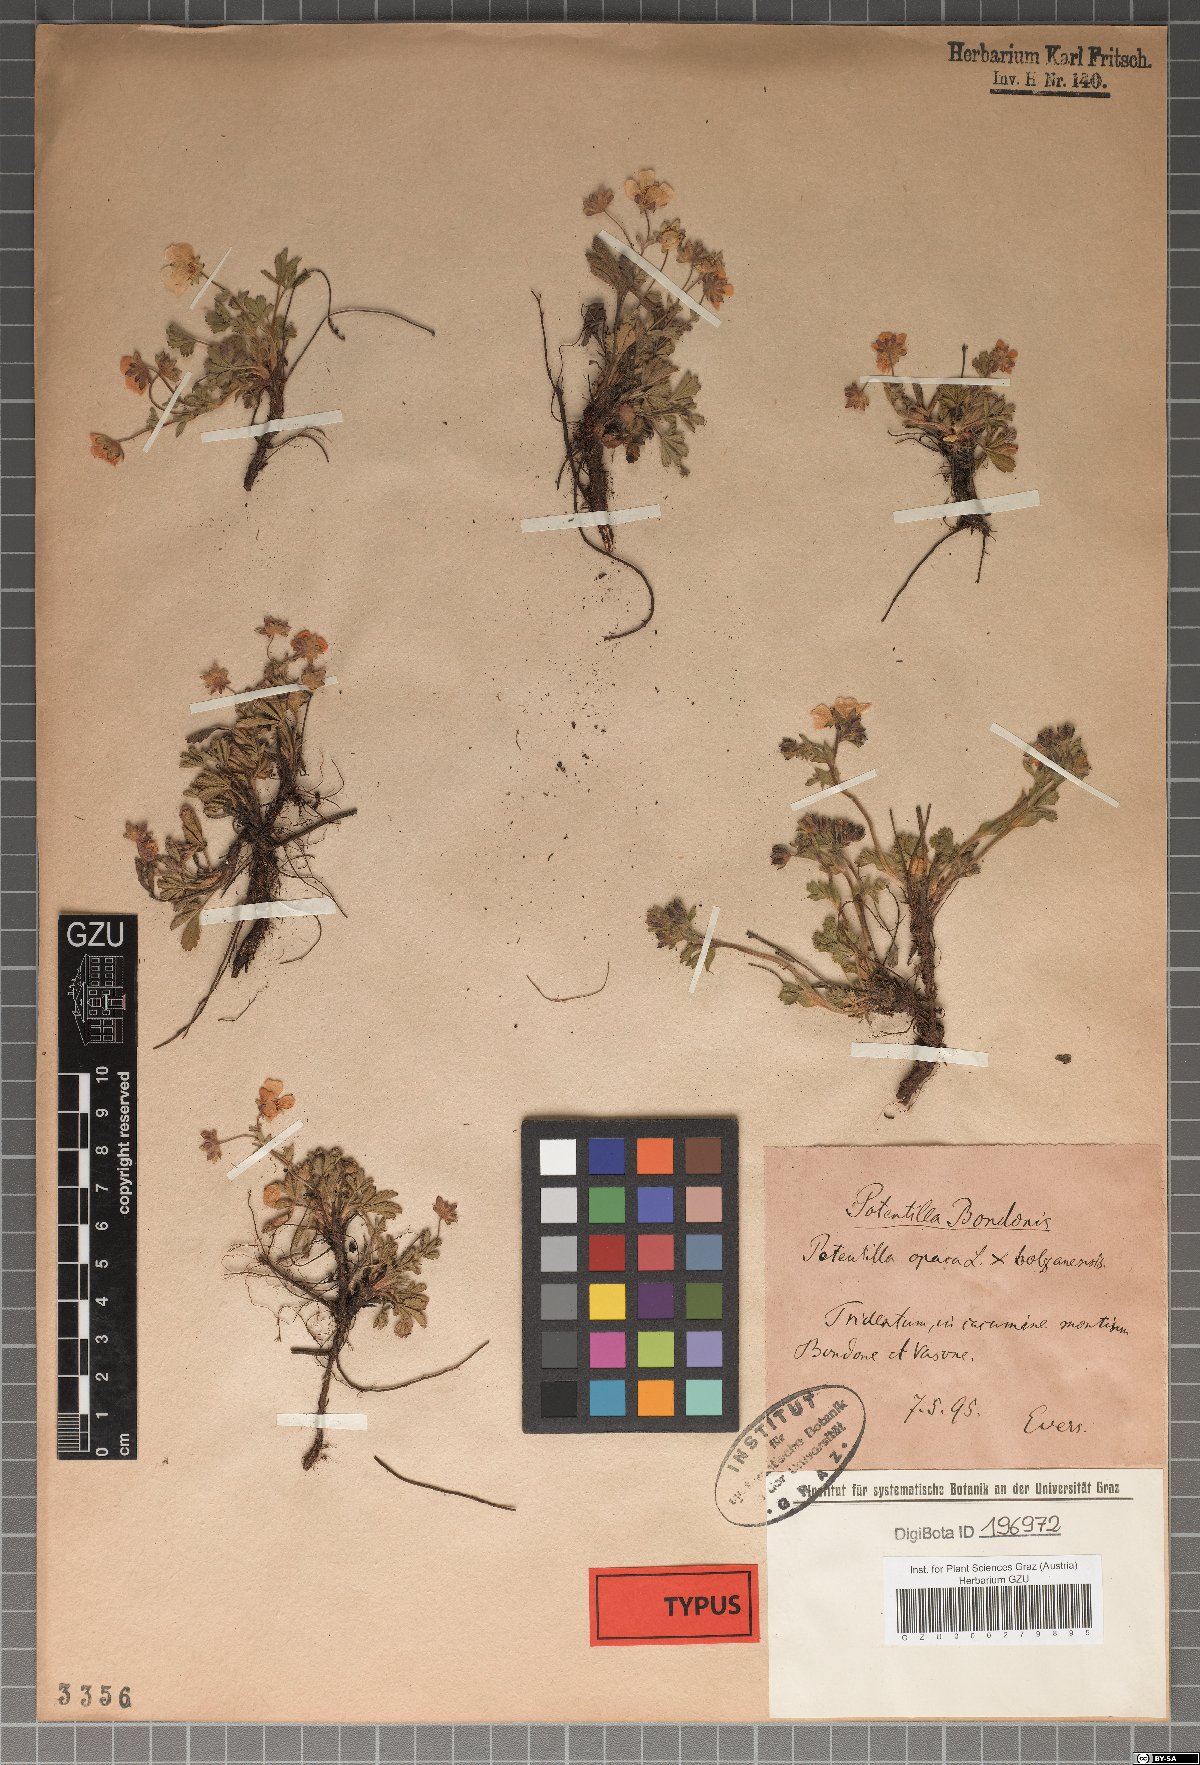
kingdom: Plantae
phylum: Tracheophyta
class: Magnoliopsida
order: Rosales
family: Rosaceae
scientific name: Rosaceae
